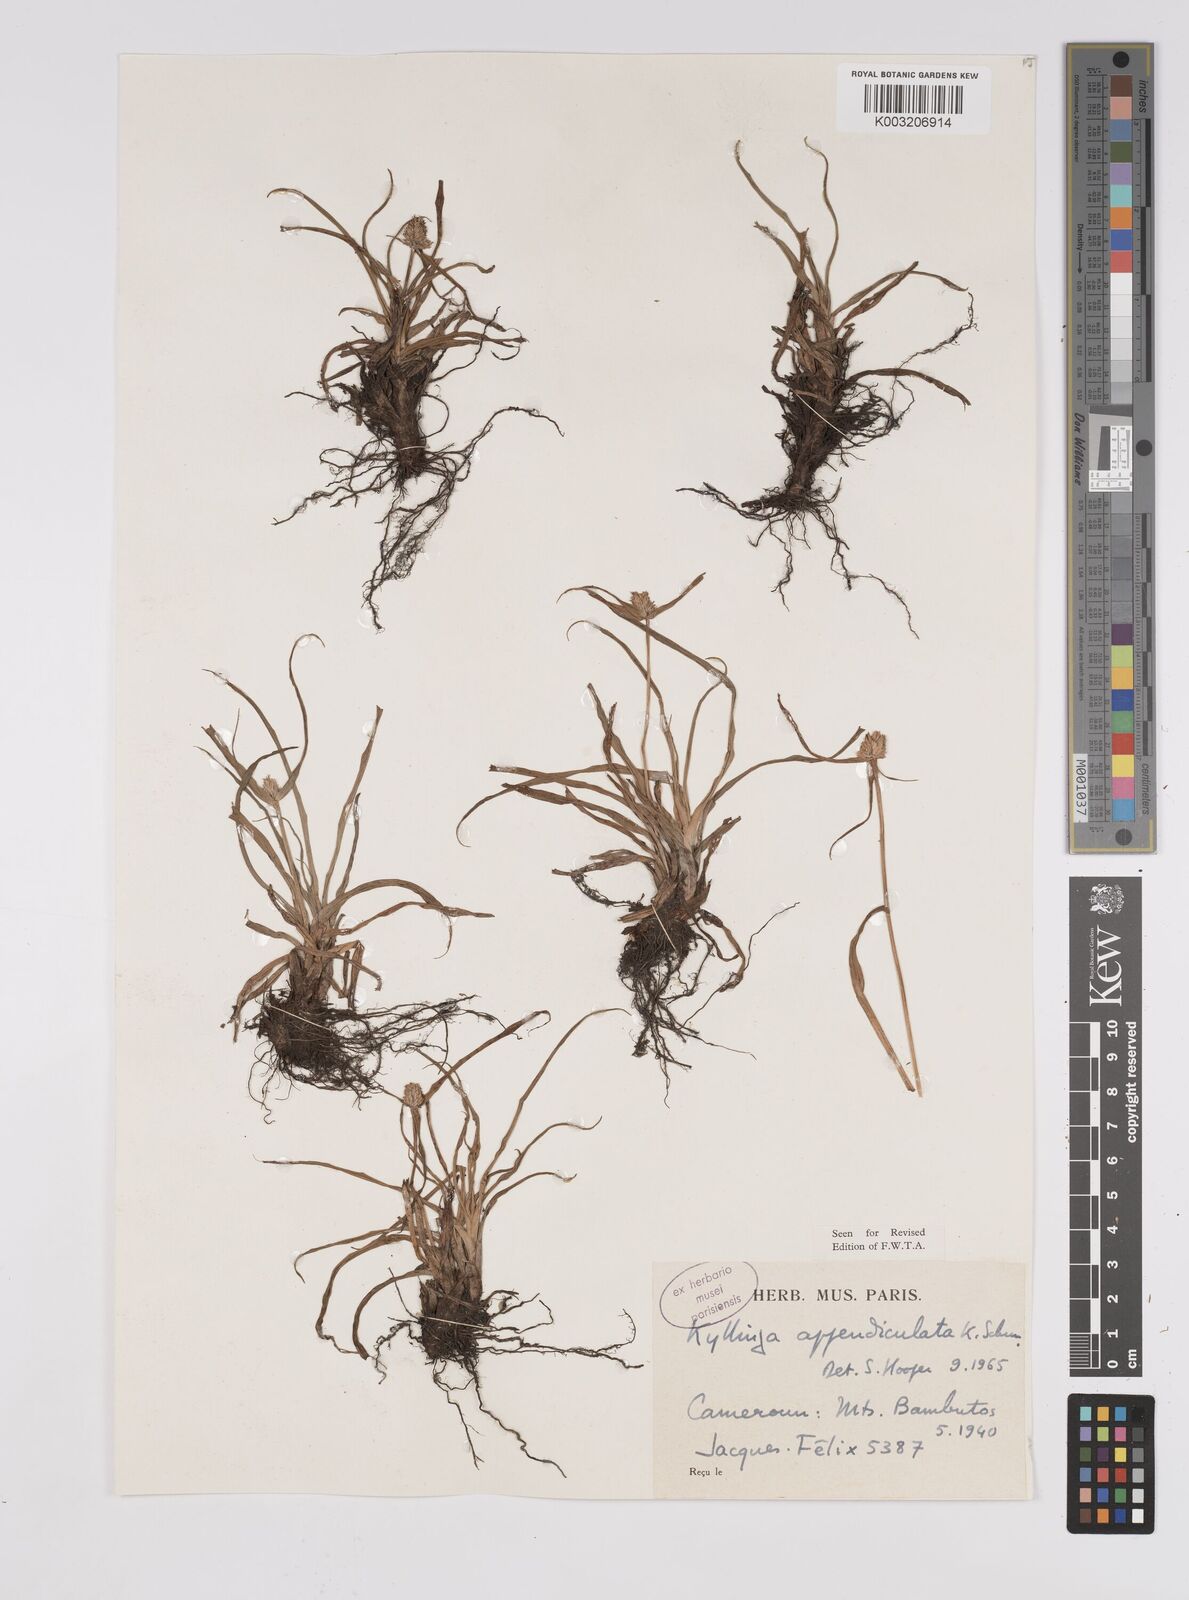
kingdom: Plantae
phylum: Tracheophyta
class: Liliopsida
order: Poales
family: Cyperaceae
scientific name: Cyperaceae
